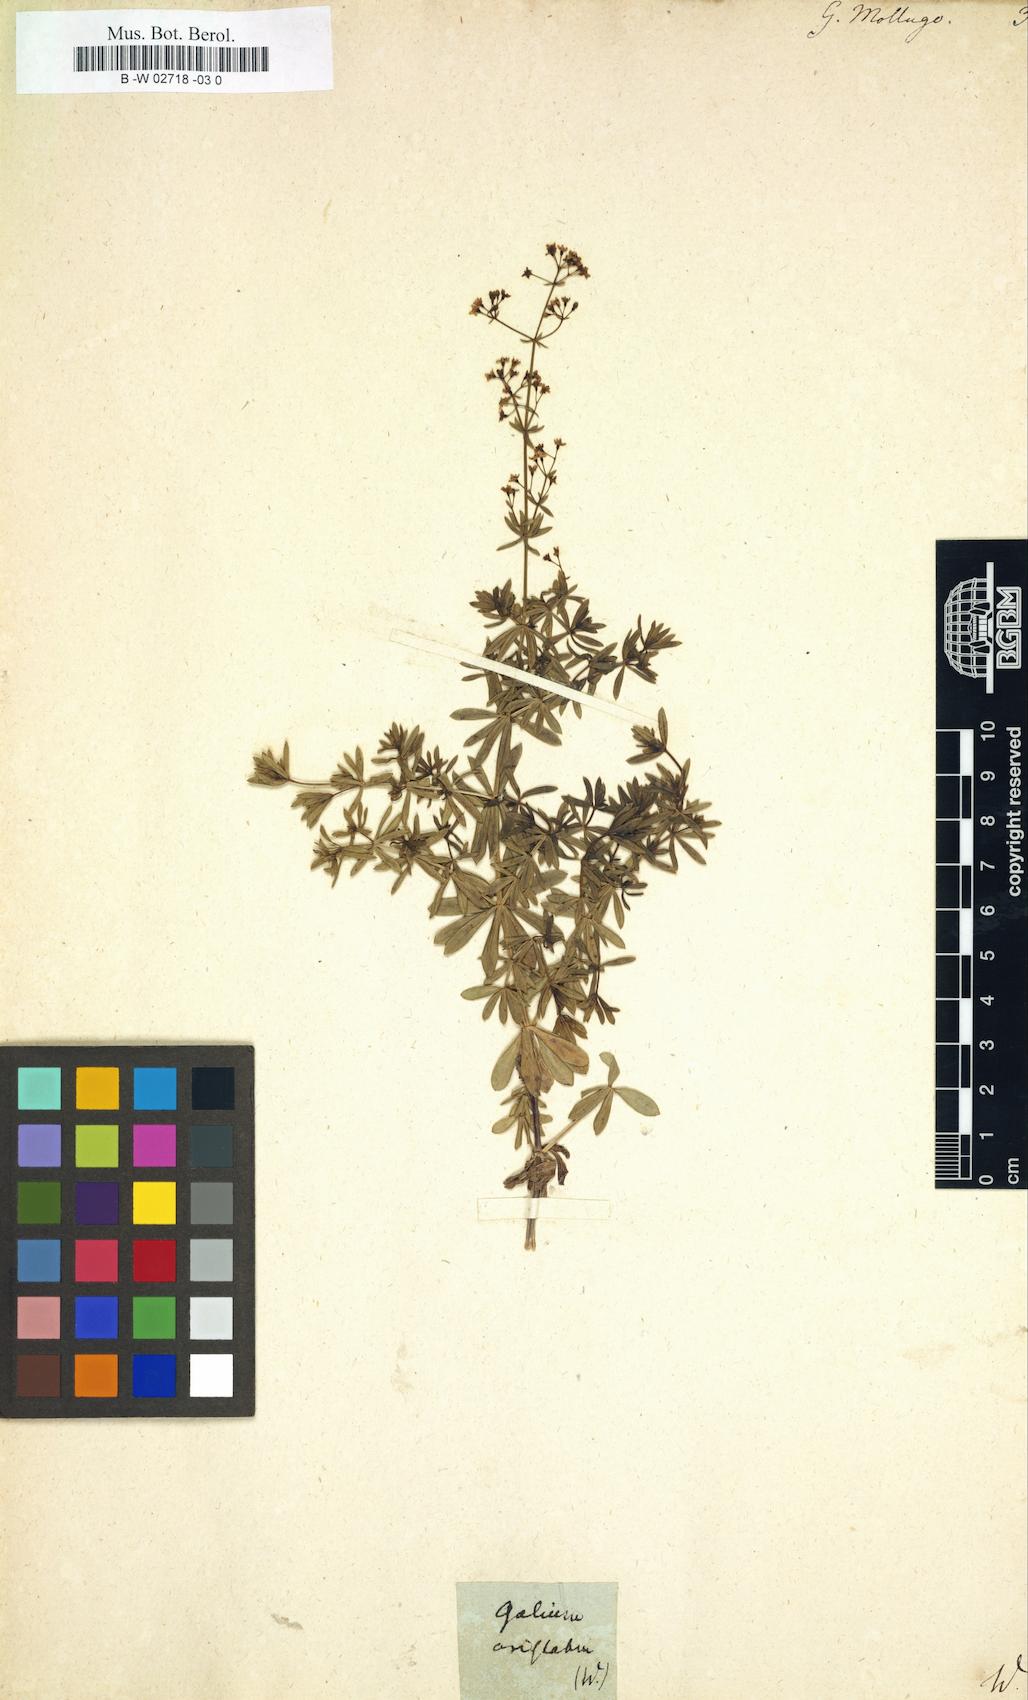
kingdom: Plantae
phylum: Tracheophyta
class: Magnoliopsida
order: Gentianales
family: Rubiaceae
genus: Galium
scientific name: Galium mollugo
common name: Hedge bedstraw
